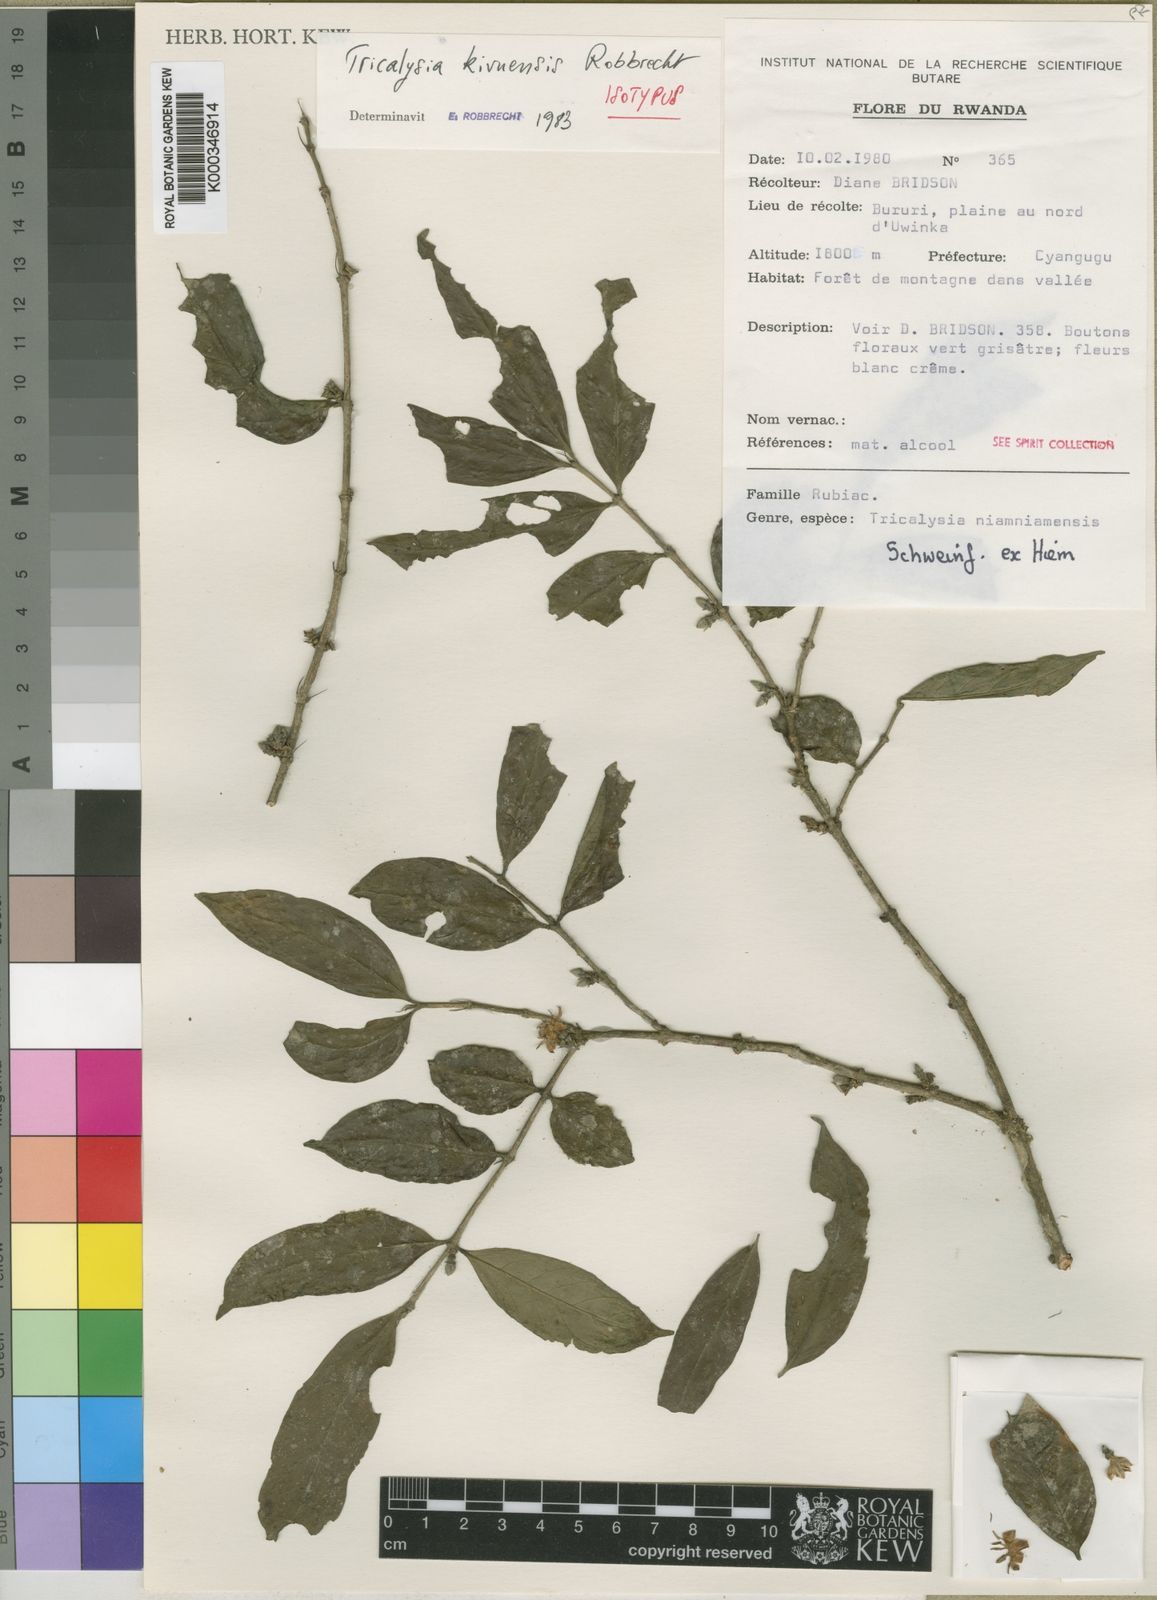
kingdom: Plantae
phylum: Tracheophyta
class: Magnoliopsida
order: Gentianales
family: Rubiaceae
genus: Tricalysia
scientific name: Tricalysia
